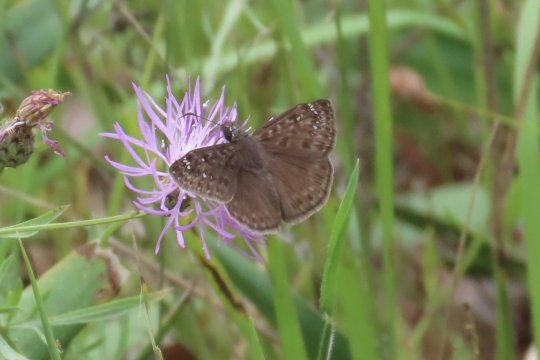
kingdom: Animalia
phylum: Arthropoda
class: Insecta
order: Lepidoptera
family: Hesperiidae
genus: Gesta
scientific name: Gesta
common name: Horace's Duskywing
